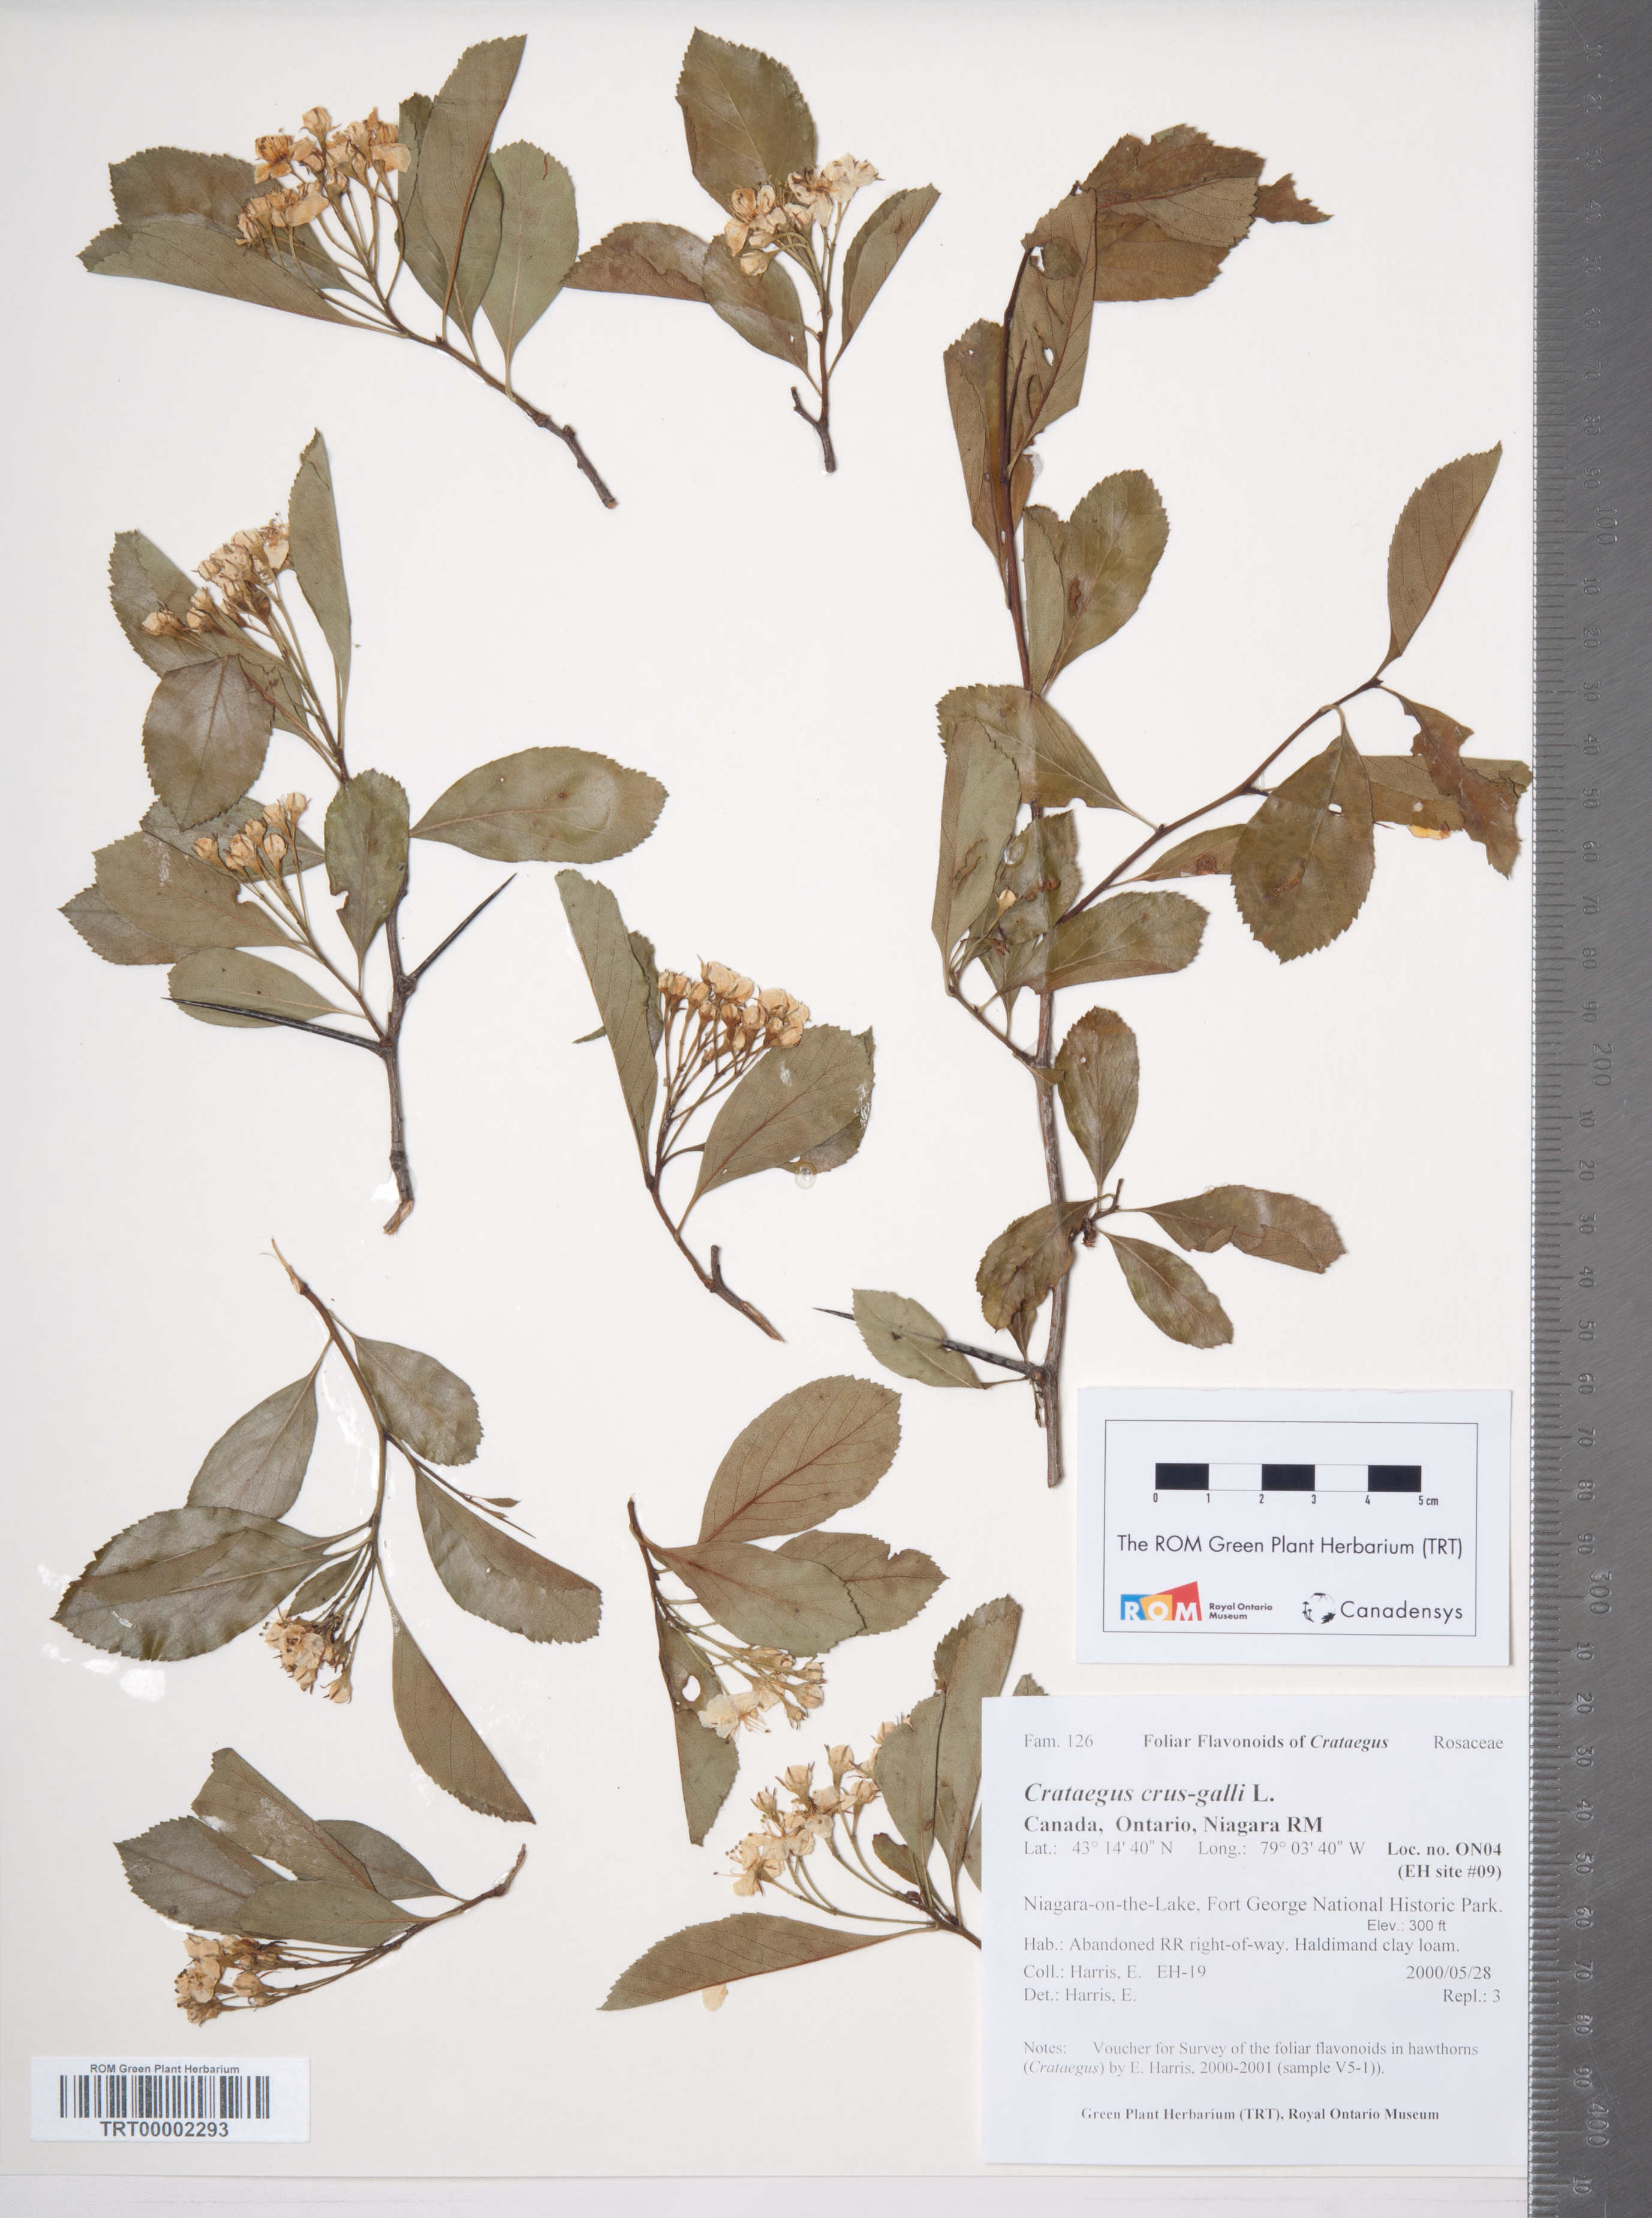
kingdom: Plantae
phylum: Tracheophyta
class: Magnoliopsida
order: Rosales
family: Rosaceae
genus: Crataegus
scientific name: Crataegus crus-galli
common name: Cockspurthorn
